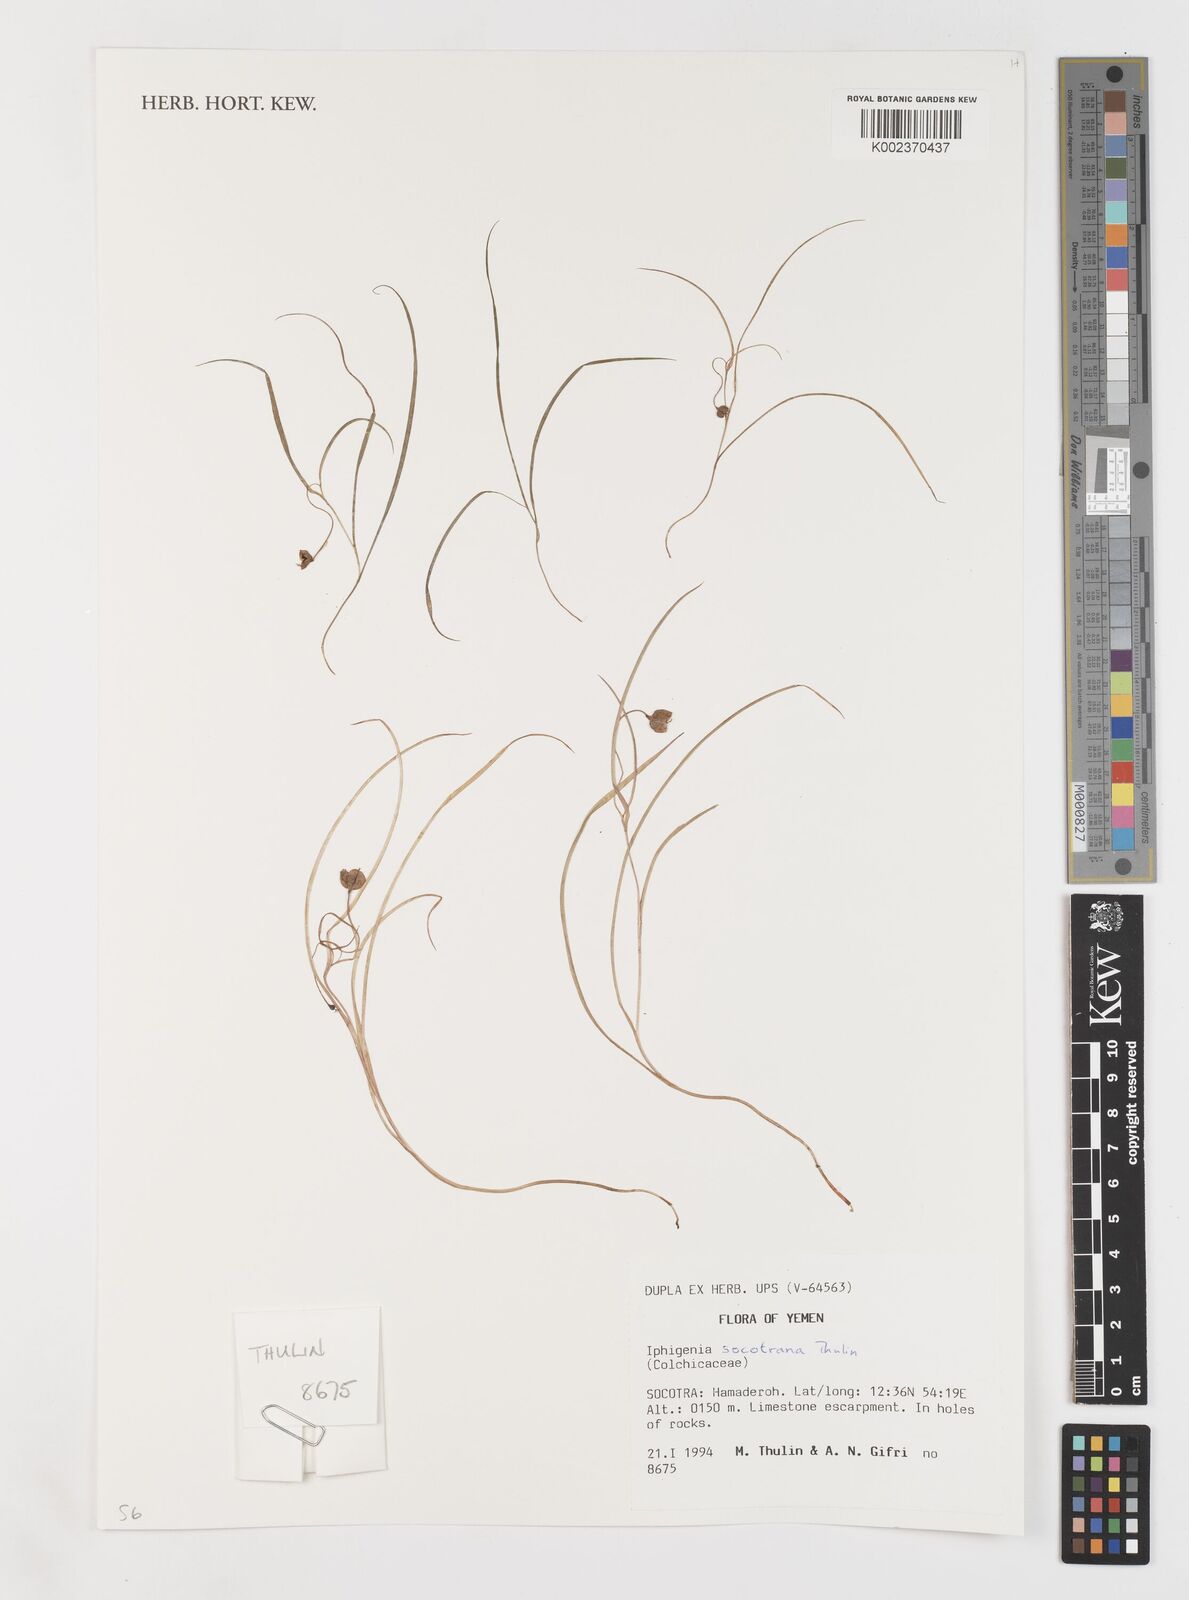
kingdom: Plantae
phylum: Tracheophyta
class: Liliopsida
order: Liliales
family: Colchicaceae
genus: Iphigenia
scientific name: Iphigenia socotrana
